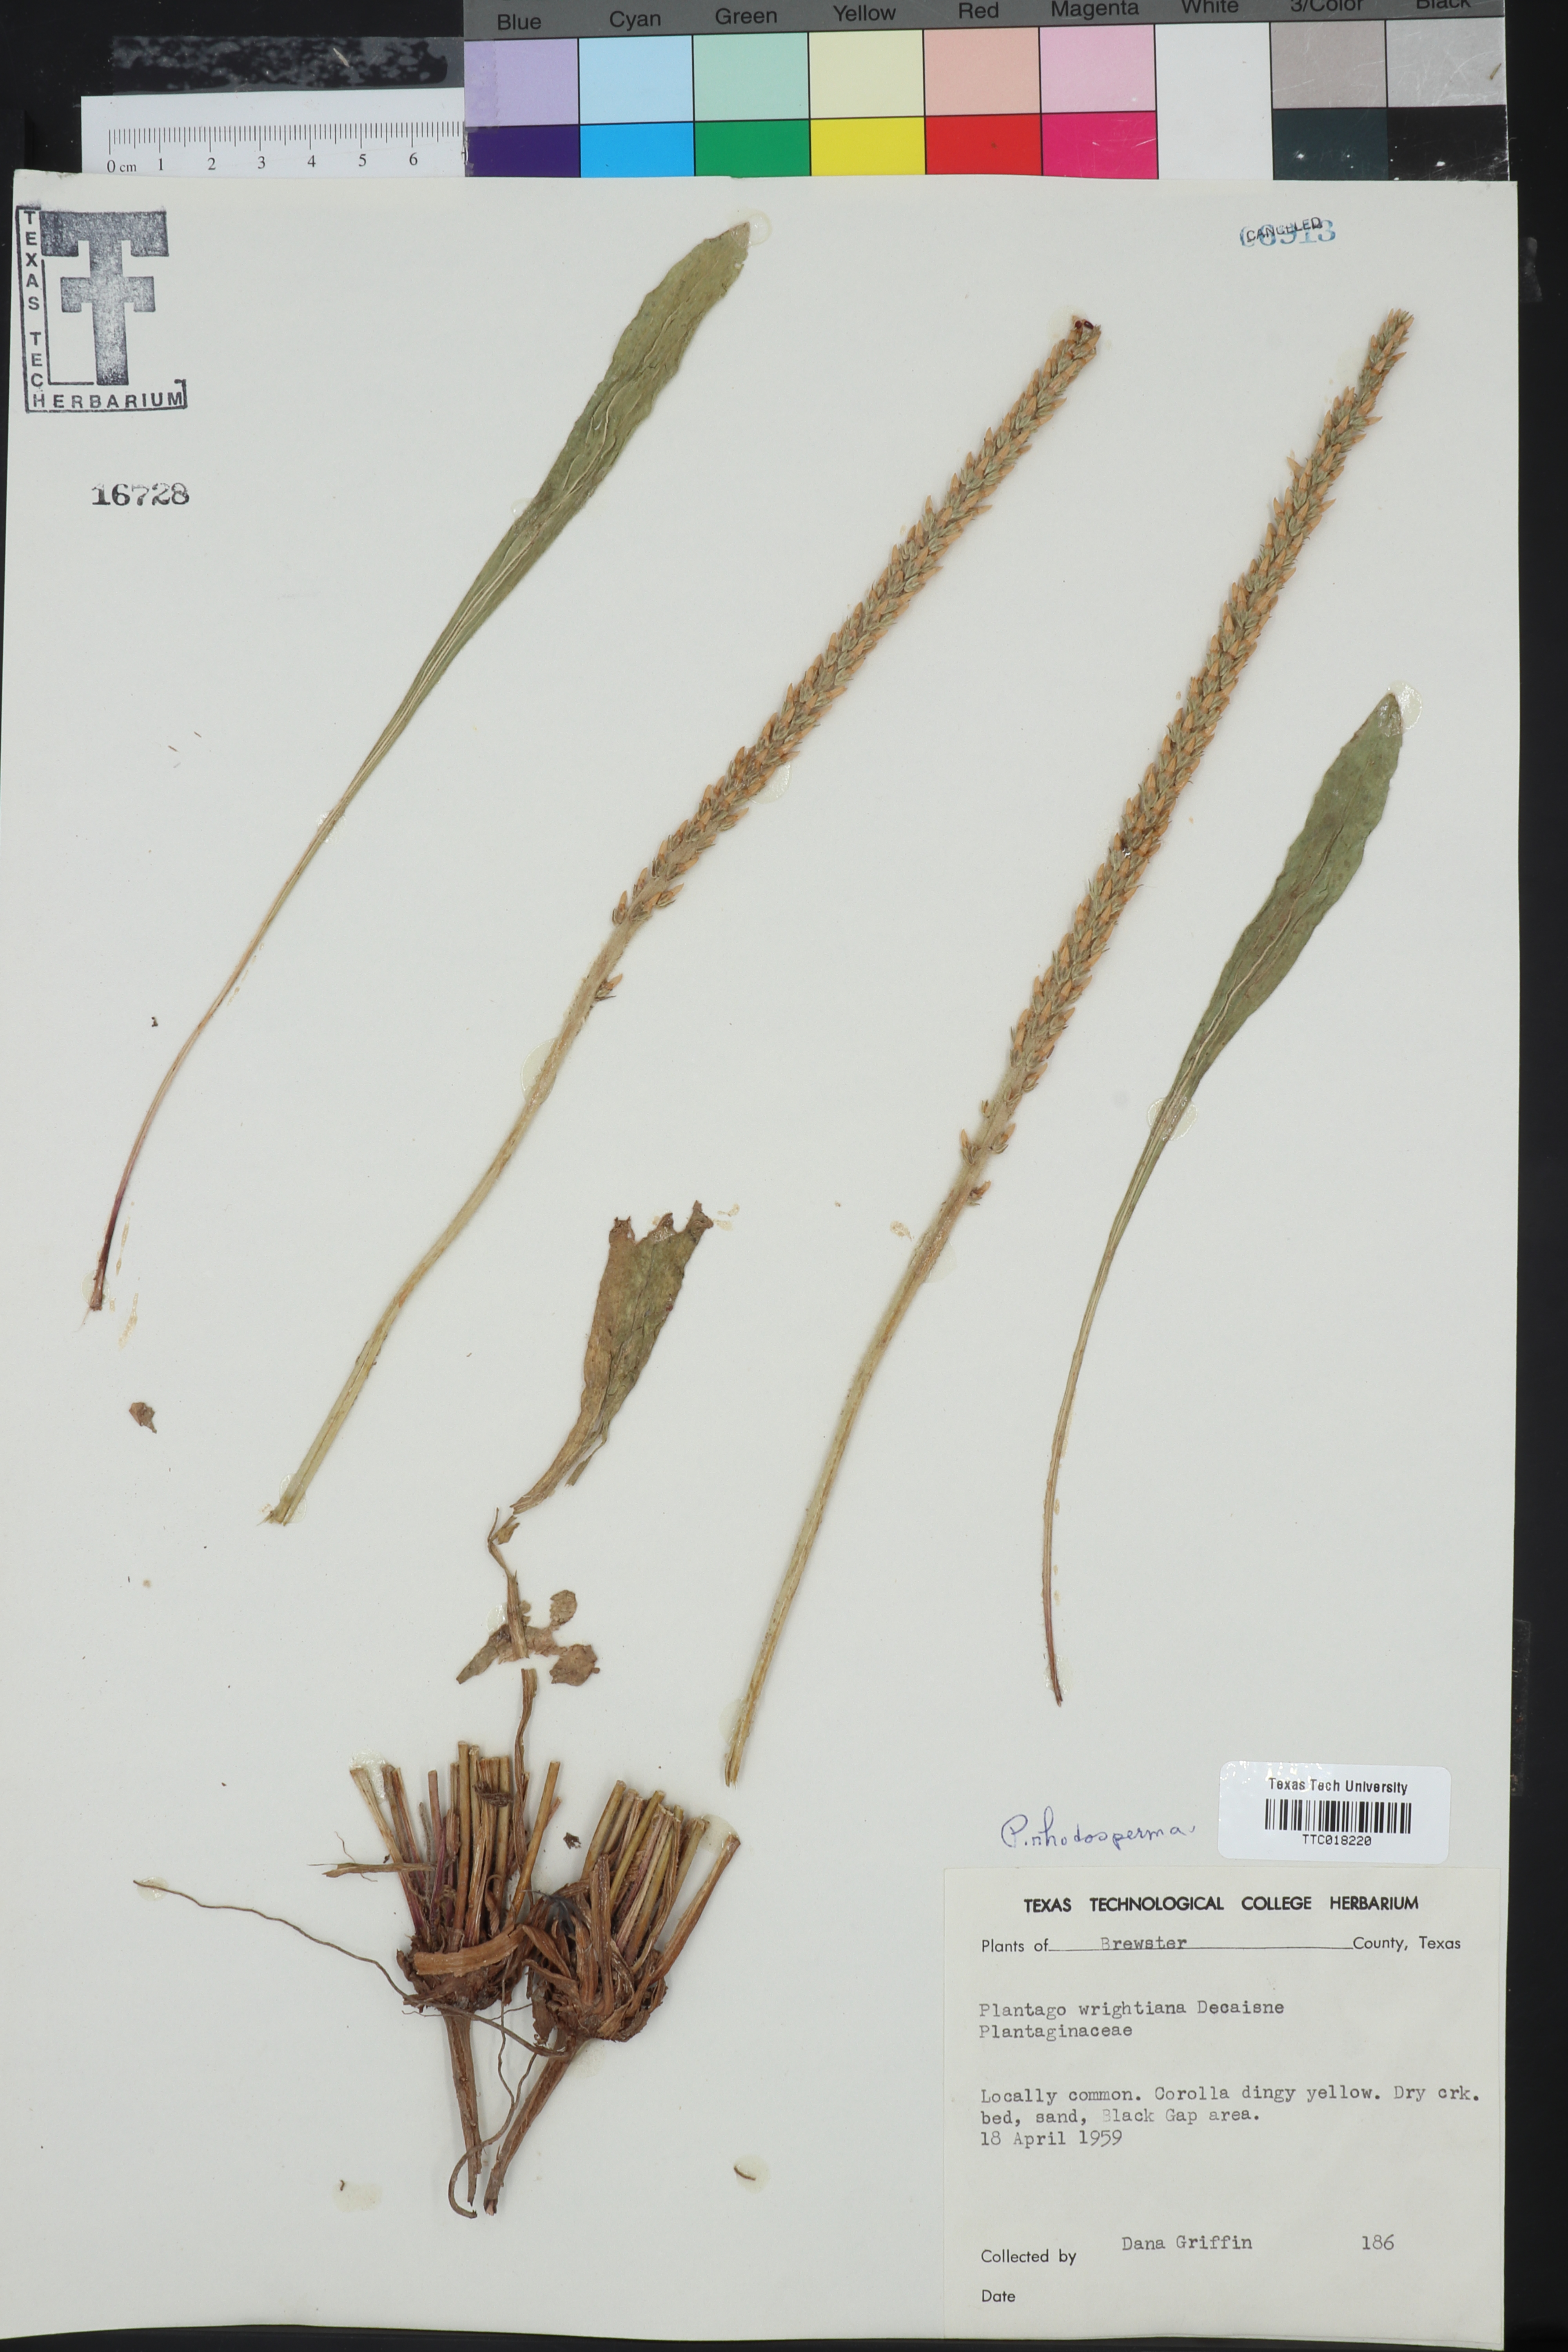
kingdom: Plantae
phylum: Tracheophyta
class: Magnoliopsida
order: Lamiales
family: Plantaginaceae
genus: Plantago
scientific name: Plantago rhodosperma
